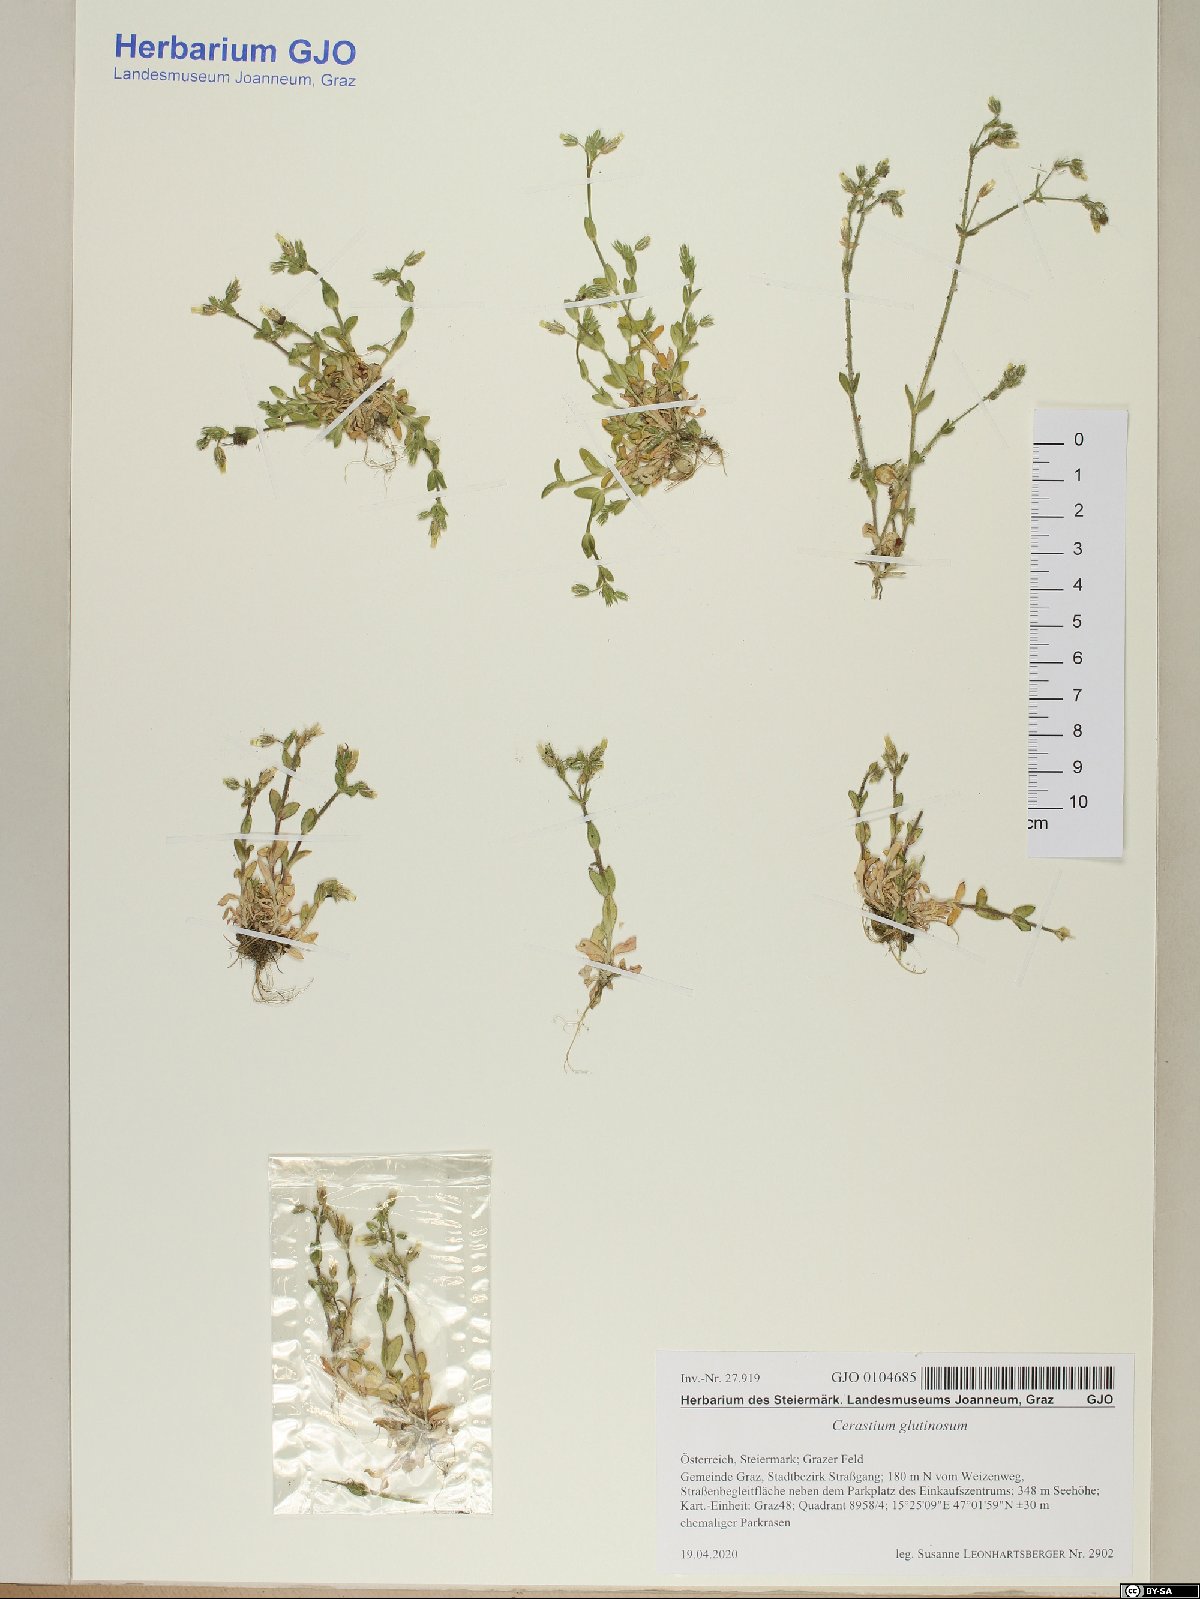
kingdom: Plantae
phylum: Tracheophyta
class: Magnoliopsida
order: Caryophyllales
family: Caryophyllaceae
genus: Cerastium
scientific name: Cerastium glutinosum
